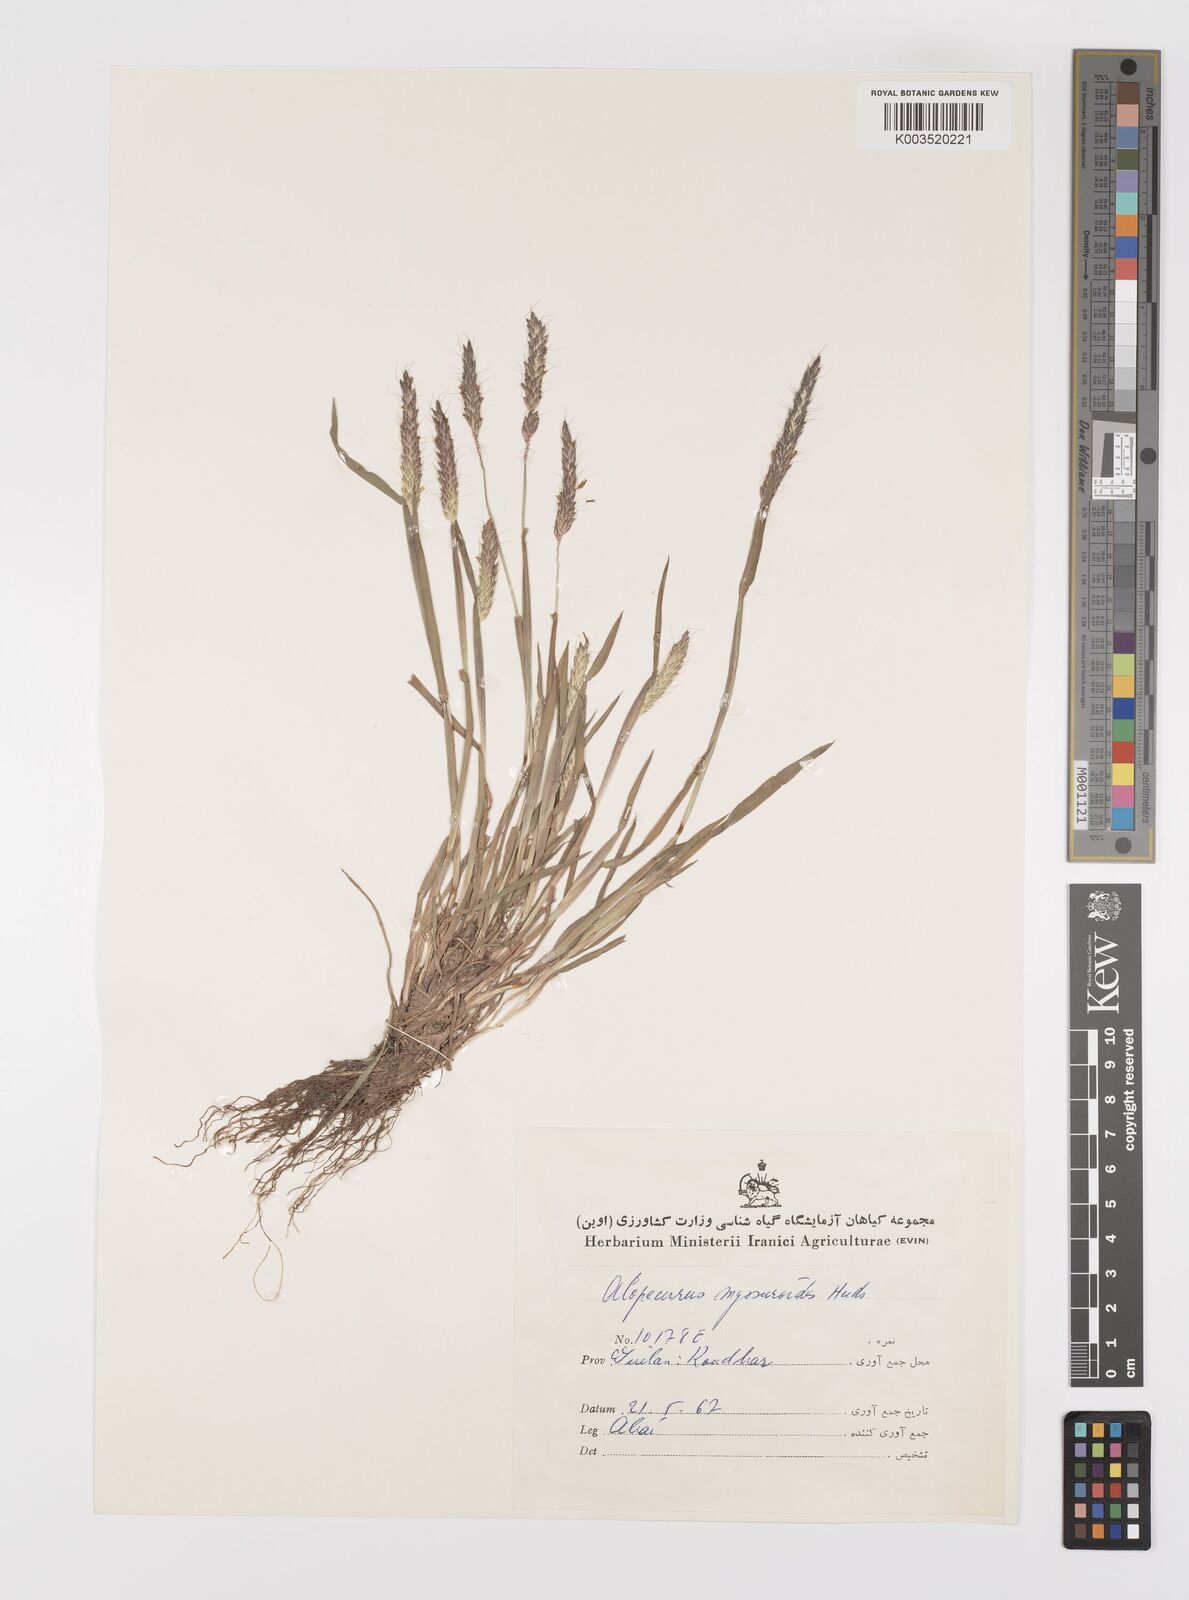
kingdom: Plantae
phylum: Tracheophyta
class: Liliopsida
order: Poales
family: Poaceae
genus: Alopecurus
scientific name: Alopecurus myosuroides
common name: Black-grass
